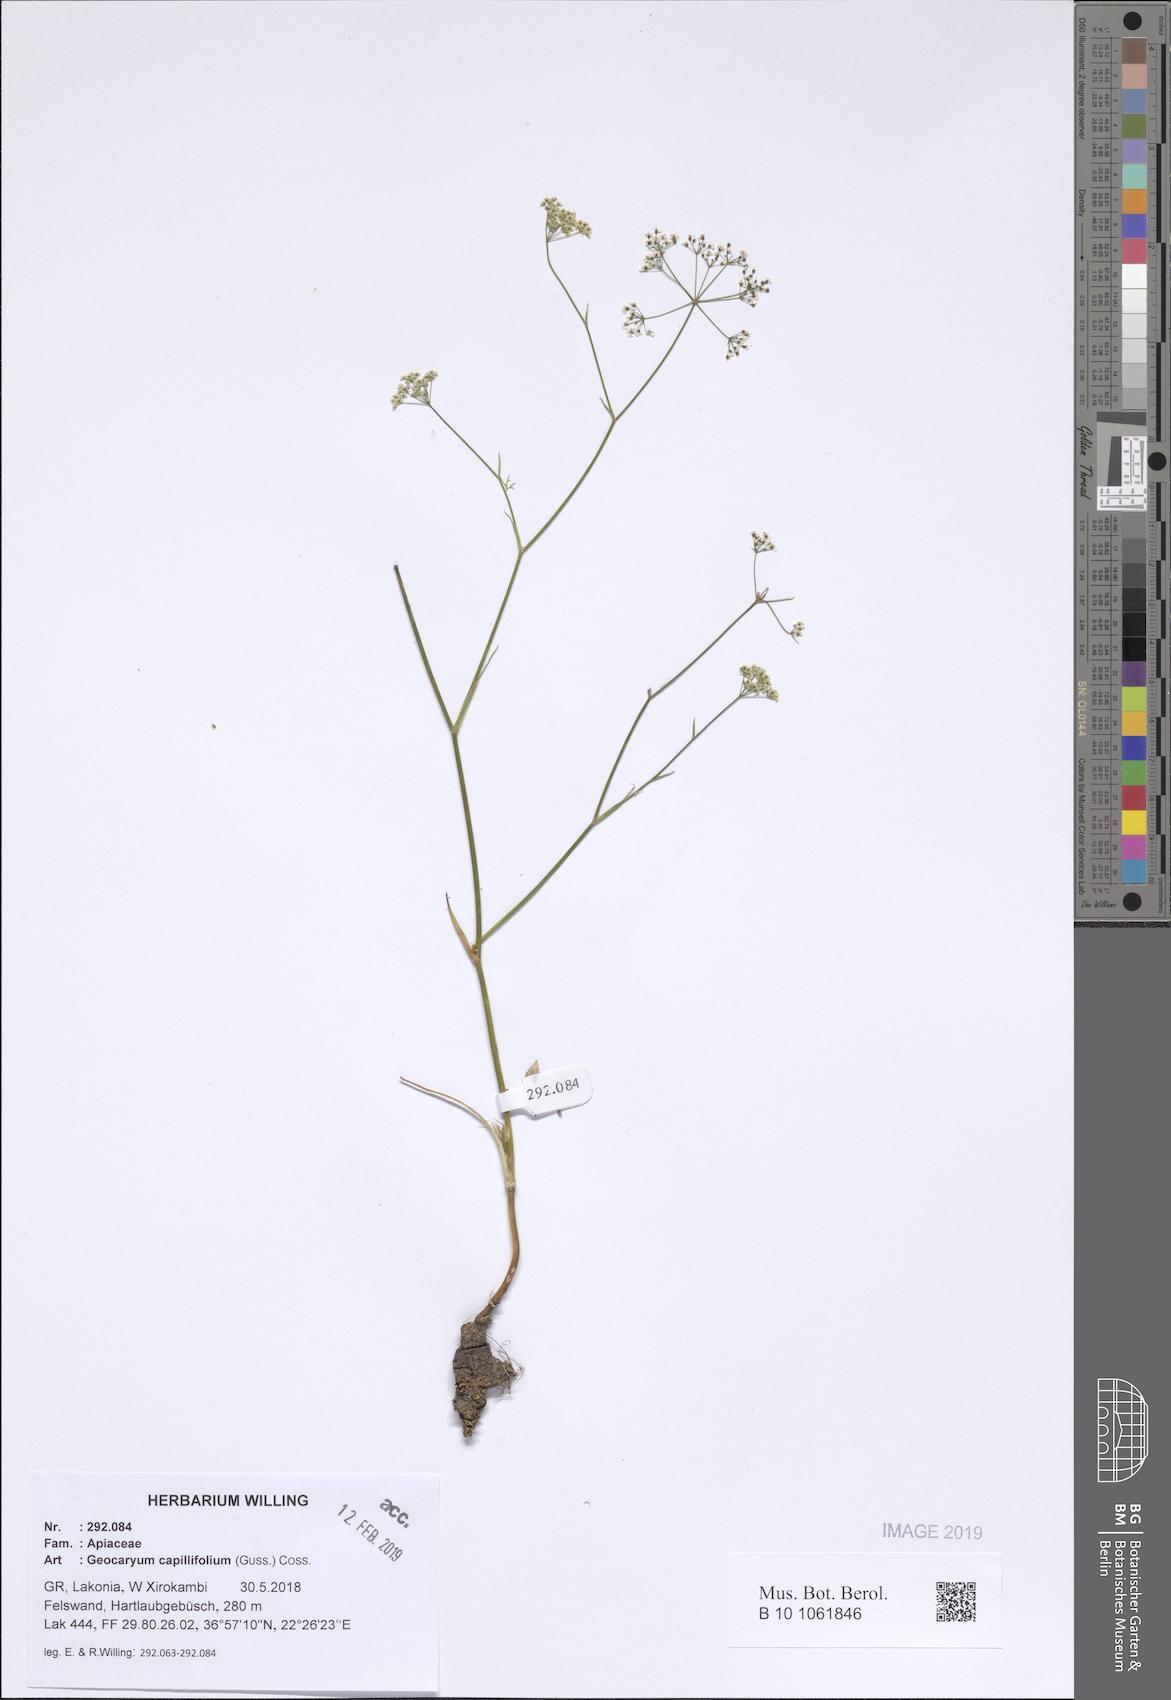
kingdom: Plantae
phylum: Tracheophyta
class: Magnoliopsida
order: Apiales
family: Apiaceae
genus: Geocaryum
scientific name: Geocaryum capillifolium
